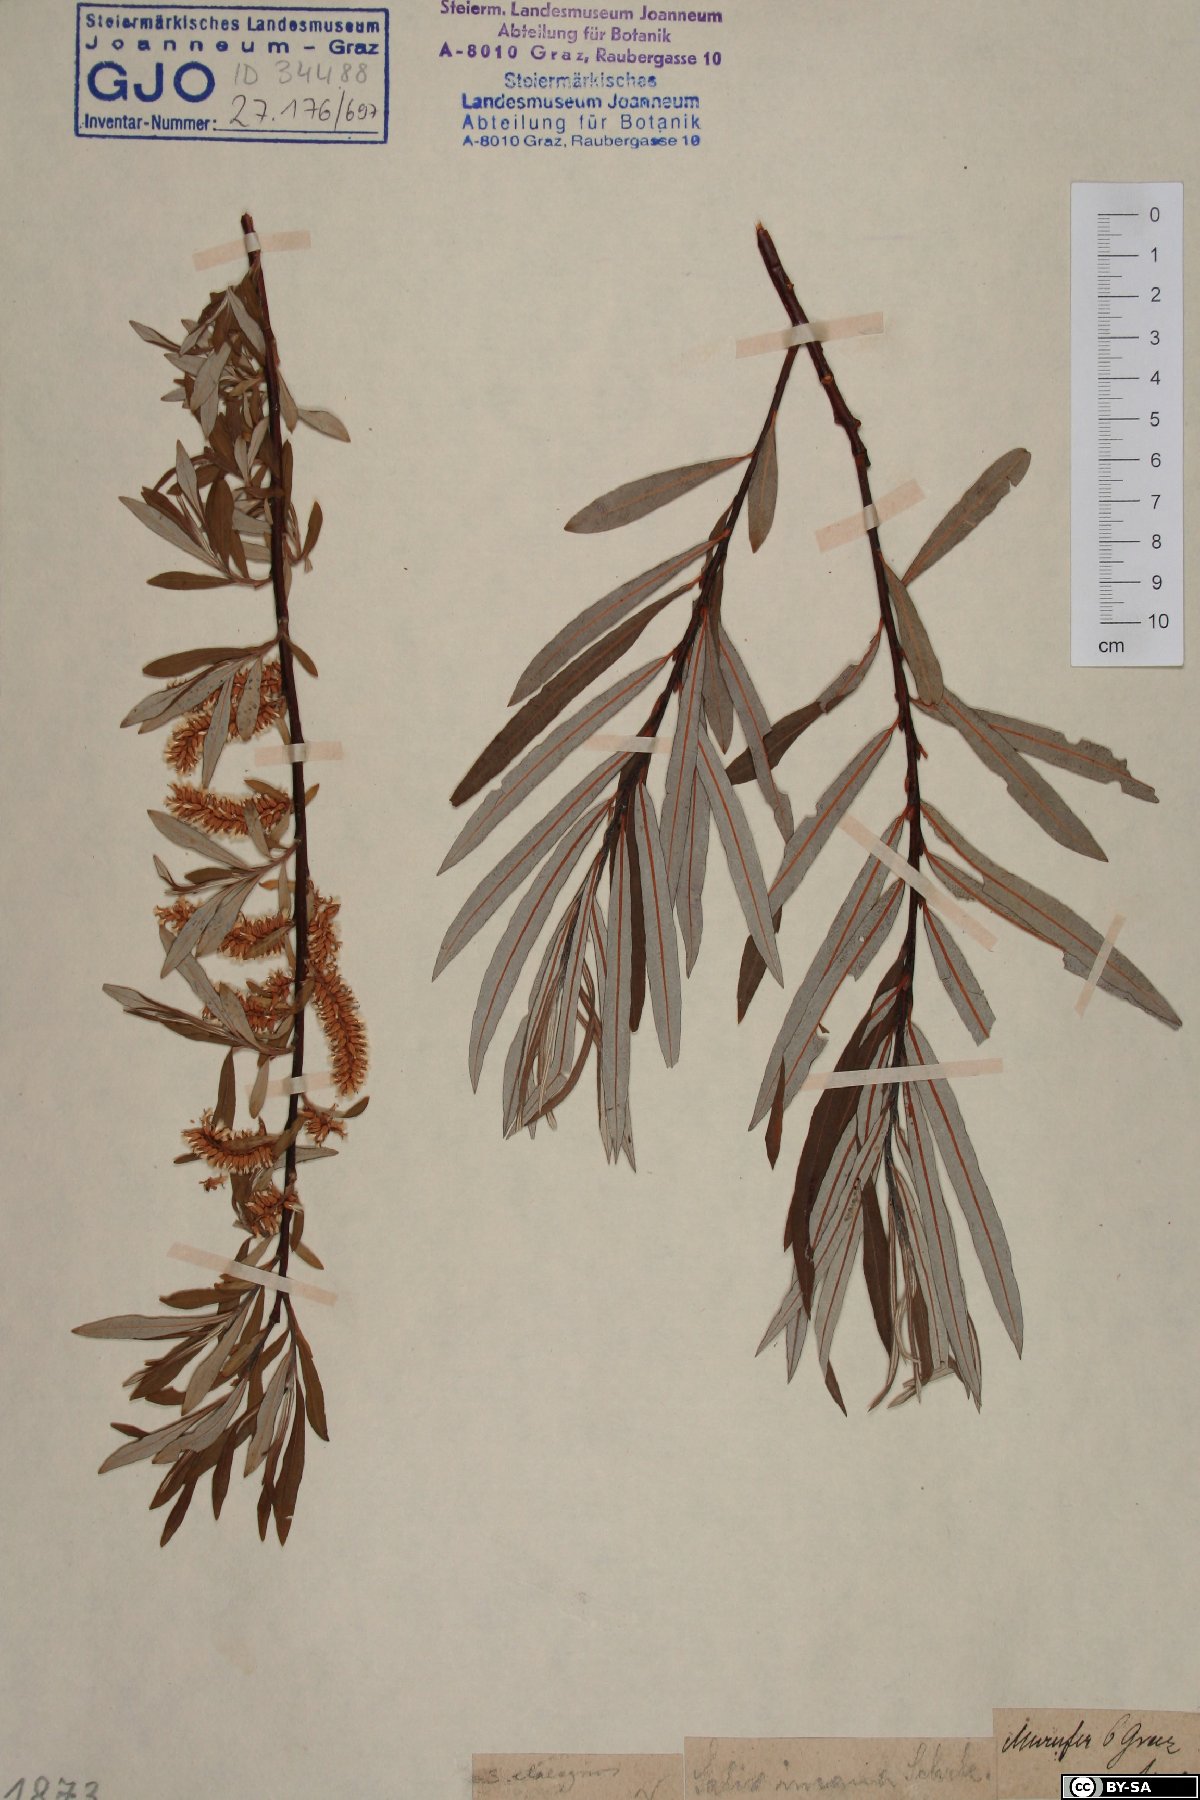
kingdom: Plantae
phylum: Tracheophyta
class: Magnoliopsida
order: Malpighiales
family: Salicaceae
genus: Salix
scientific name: Salix eleagnos
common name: Elaeagnus willow
